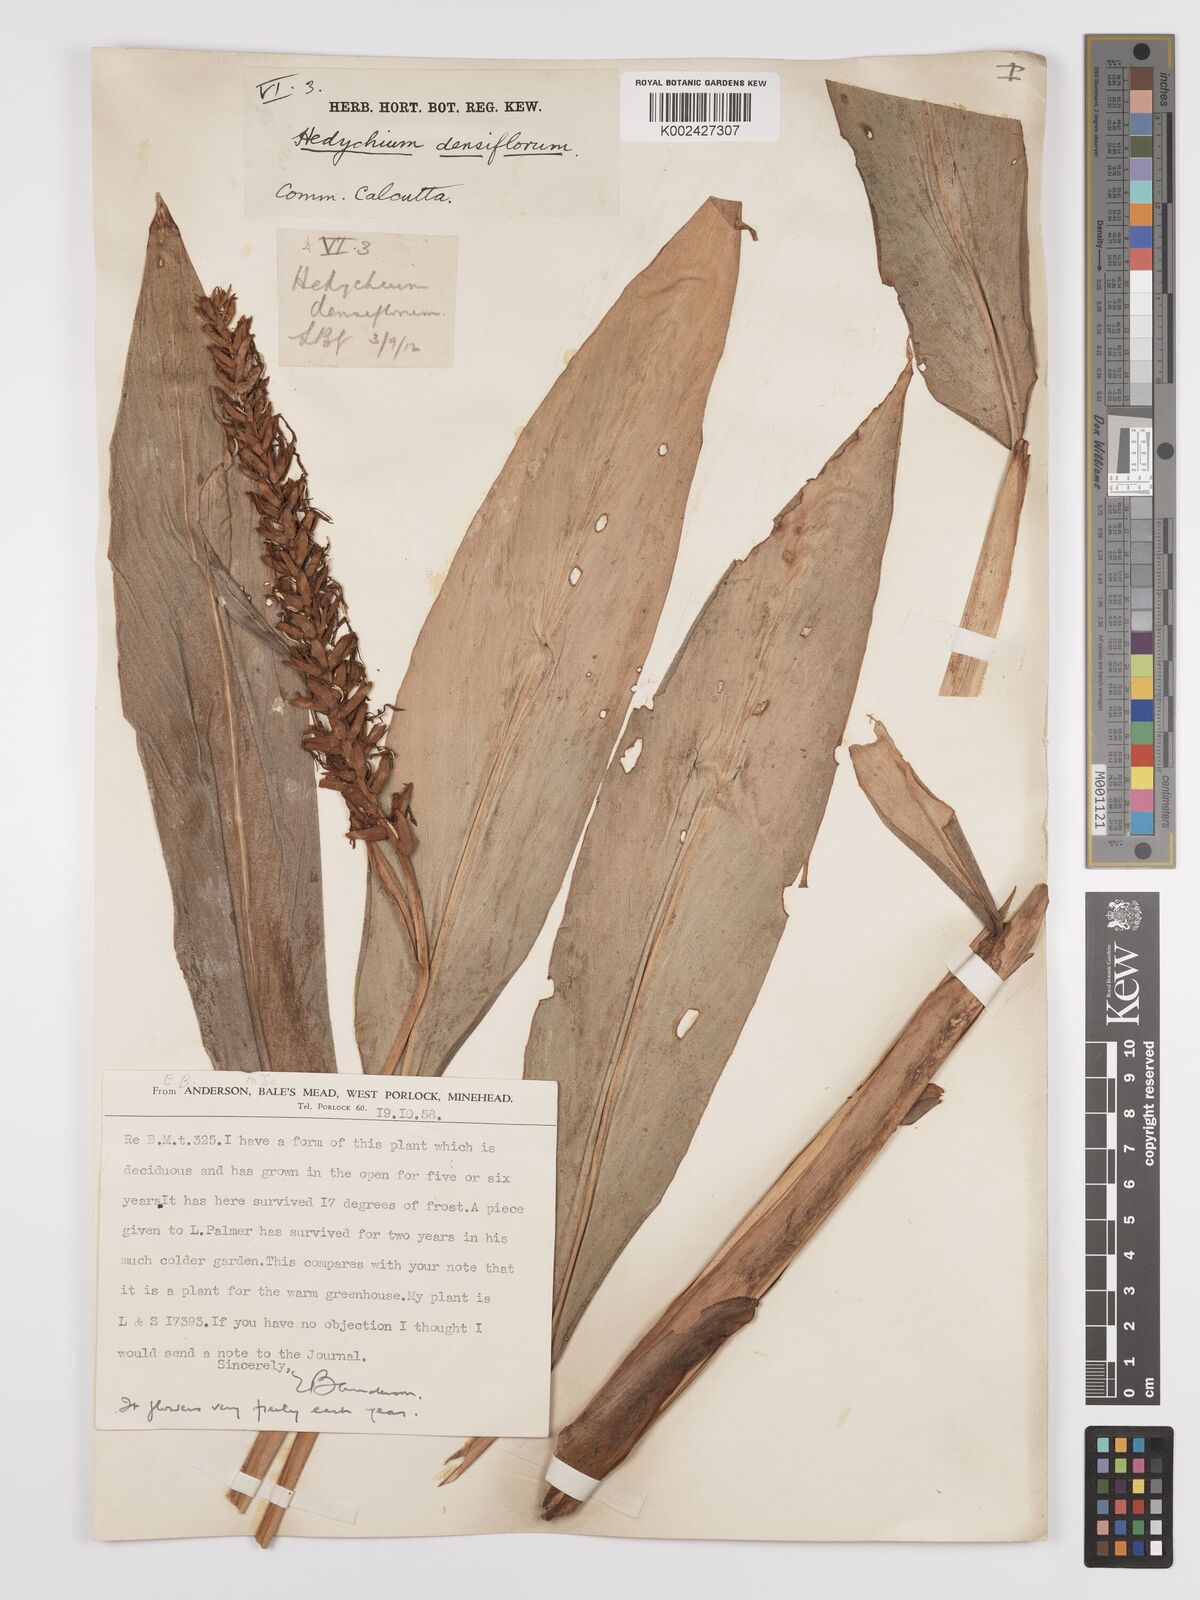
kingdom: Plantae
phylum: Tracheophyta
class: Liliopsida
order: Zingiberales
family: Zingiberaceae
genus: Hedychium
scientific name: Hedychium densiflorum
